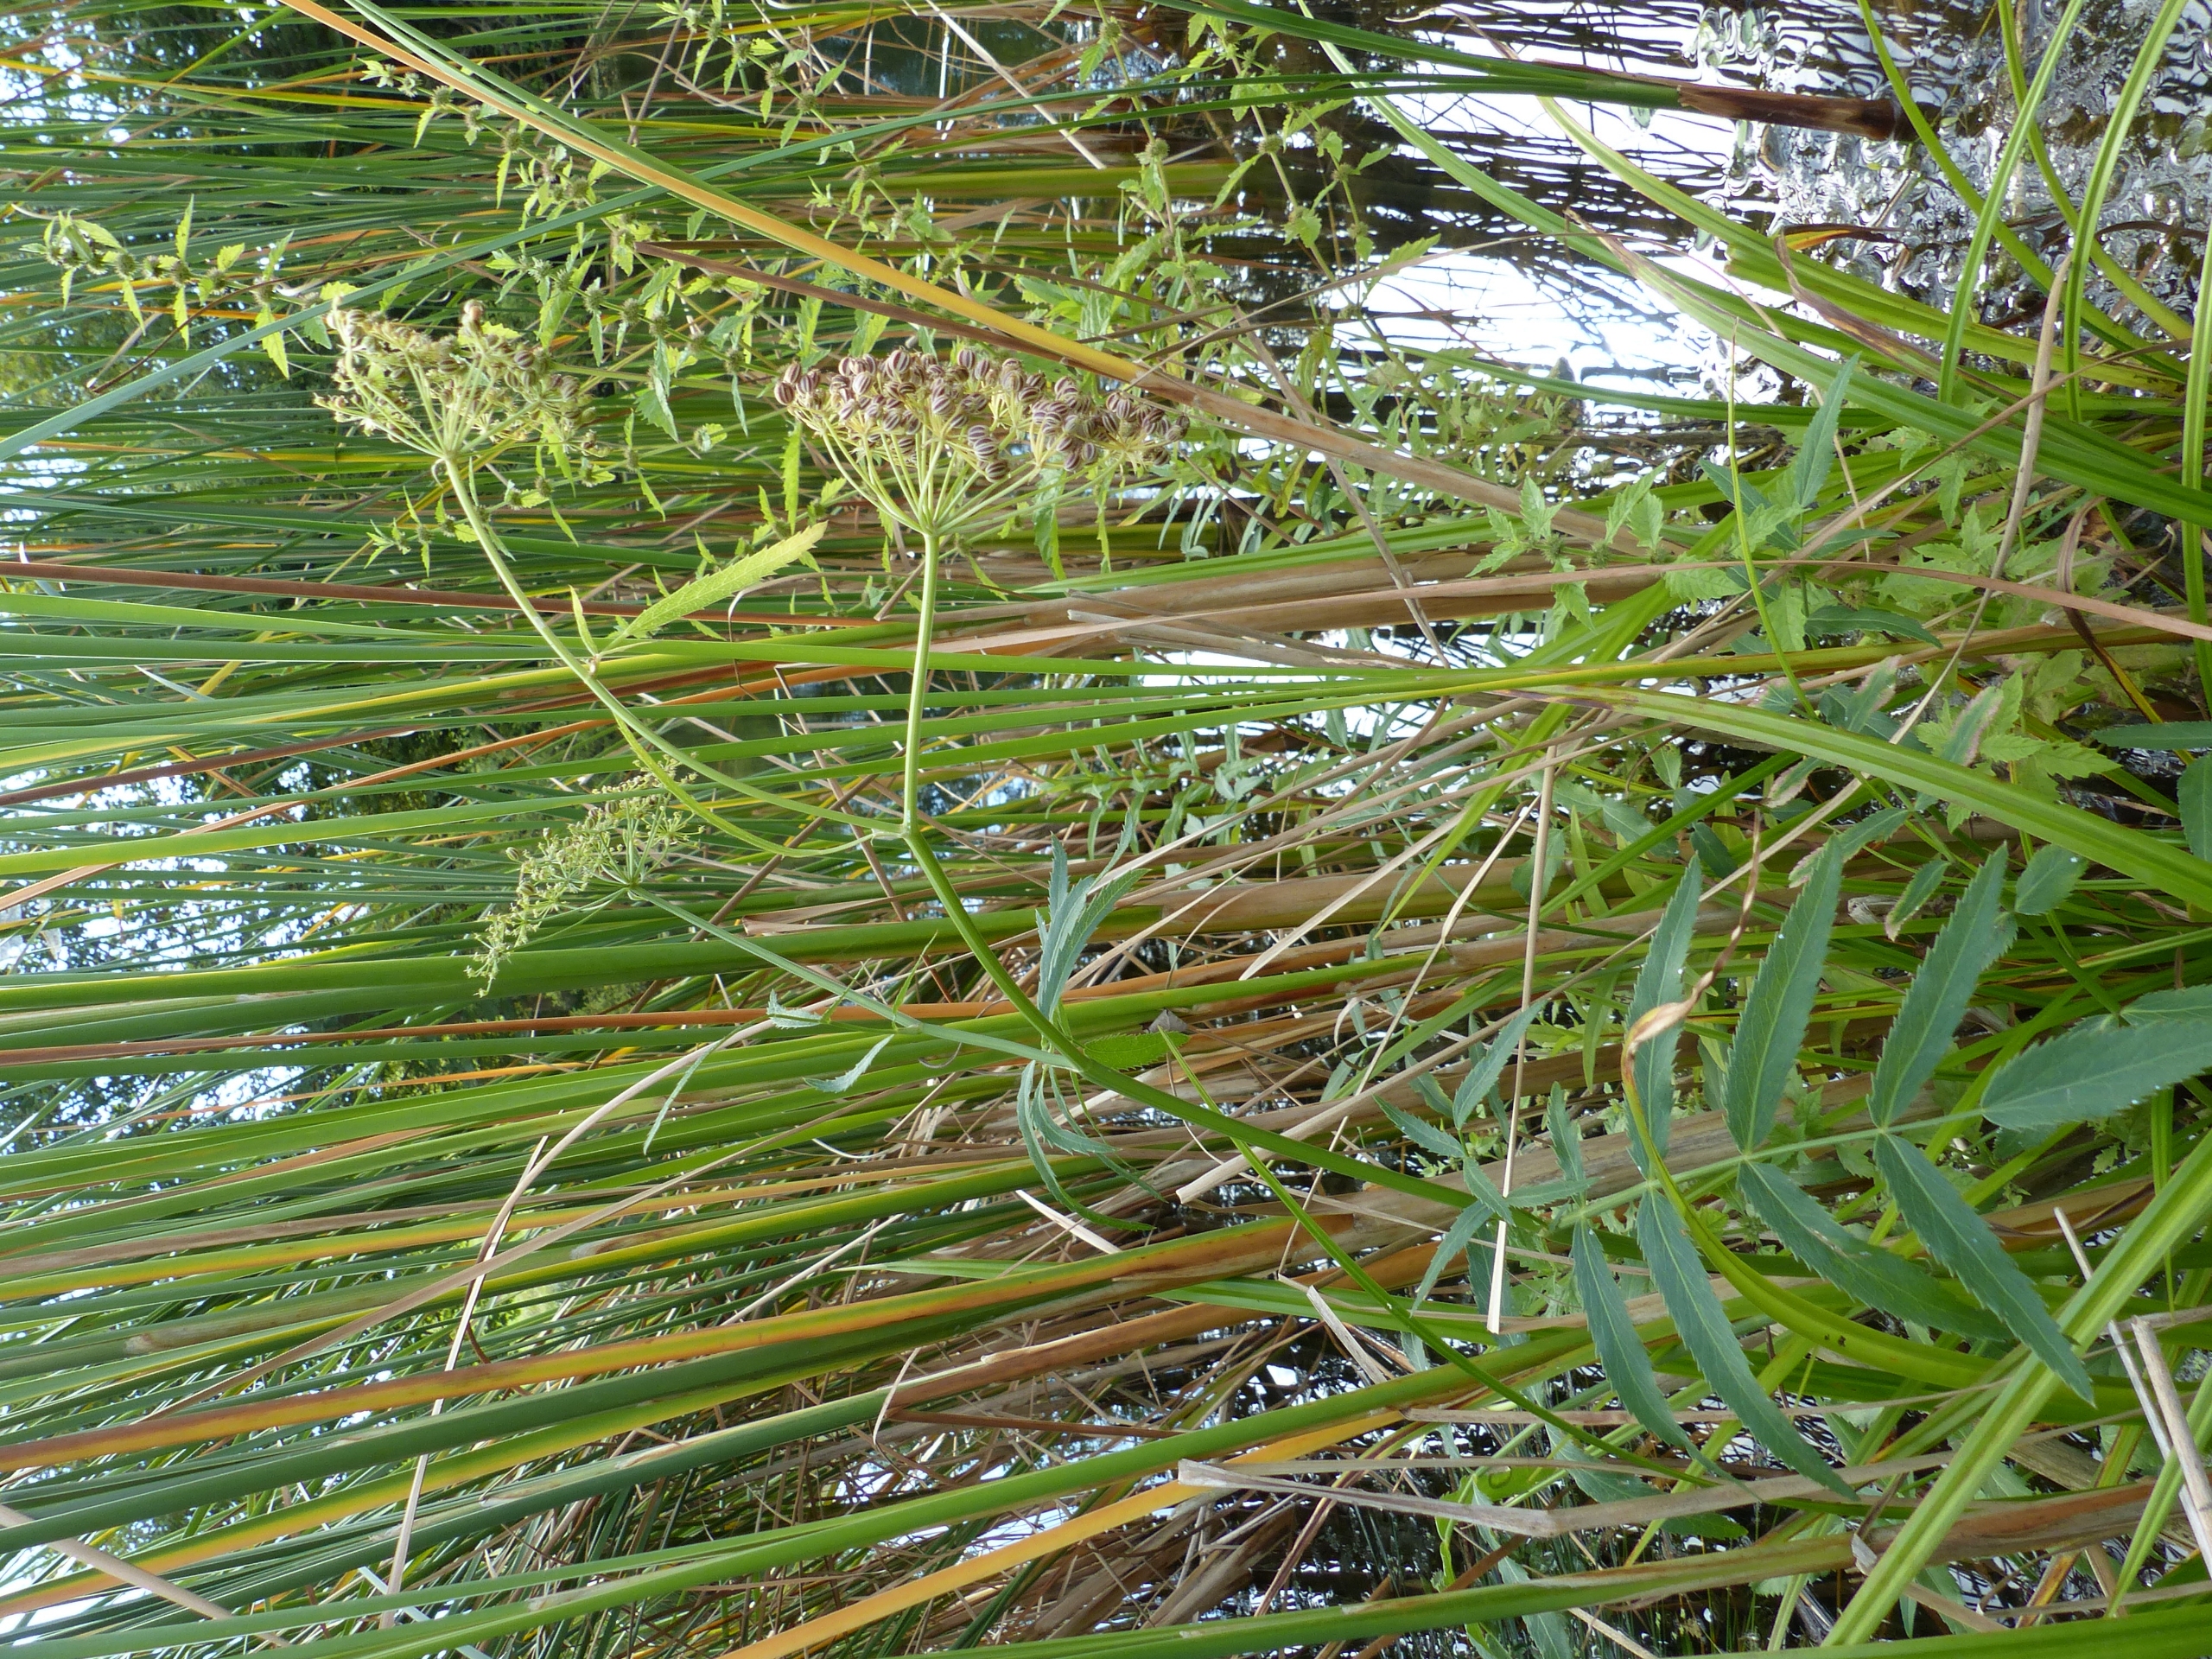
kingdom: Plantae
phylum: Tracheophyta
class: Magnoliopsida
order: Apiales
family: Apiaceae
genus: Cicuta
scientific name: Cicuta virosa
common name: Gifttyde
